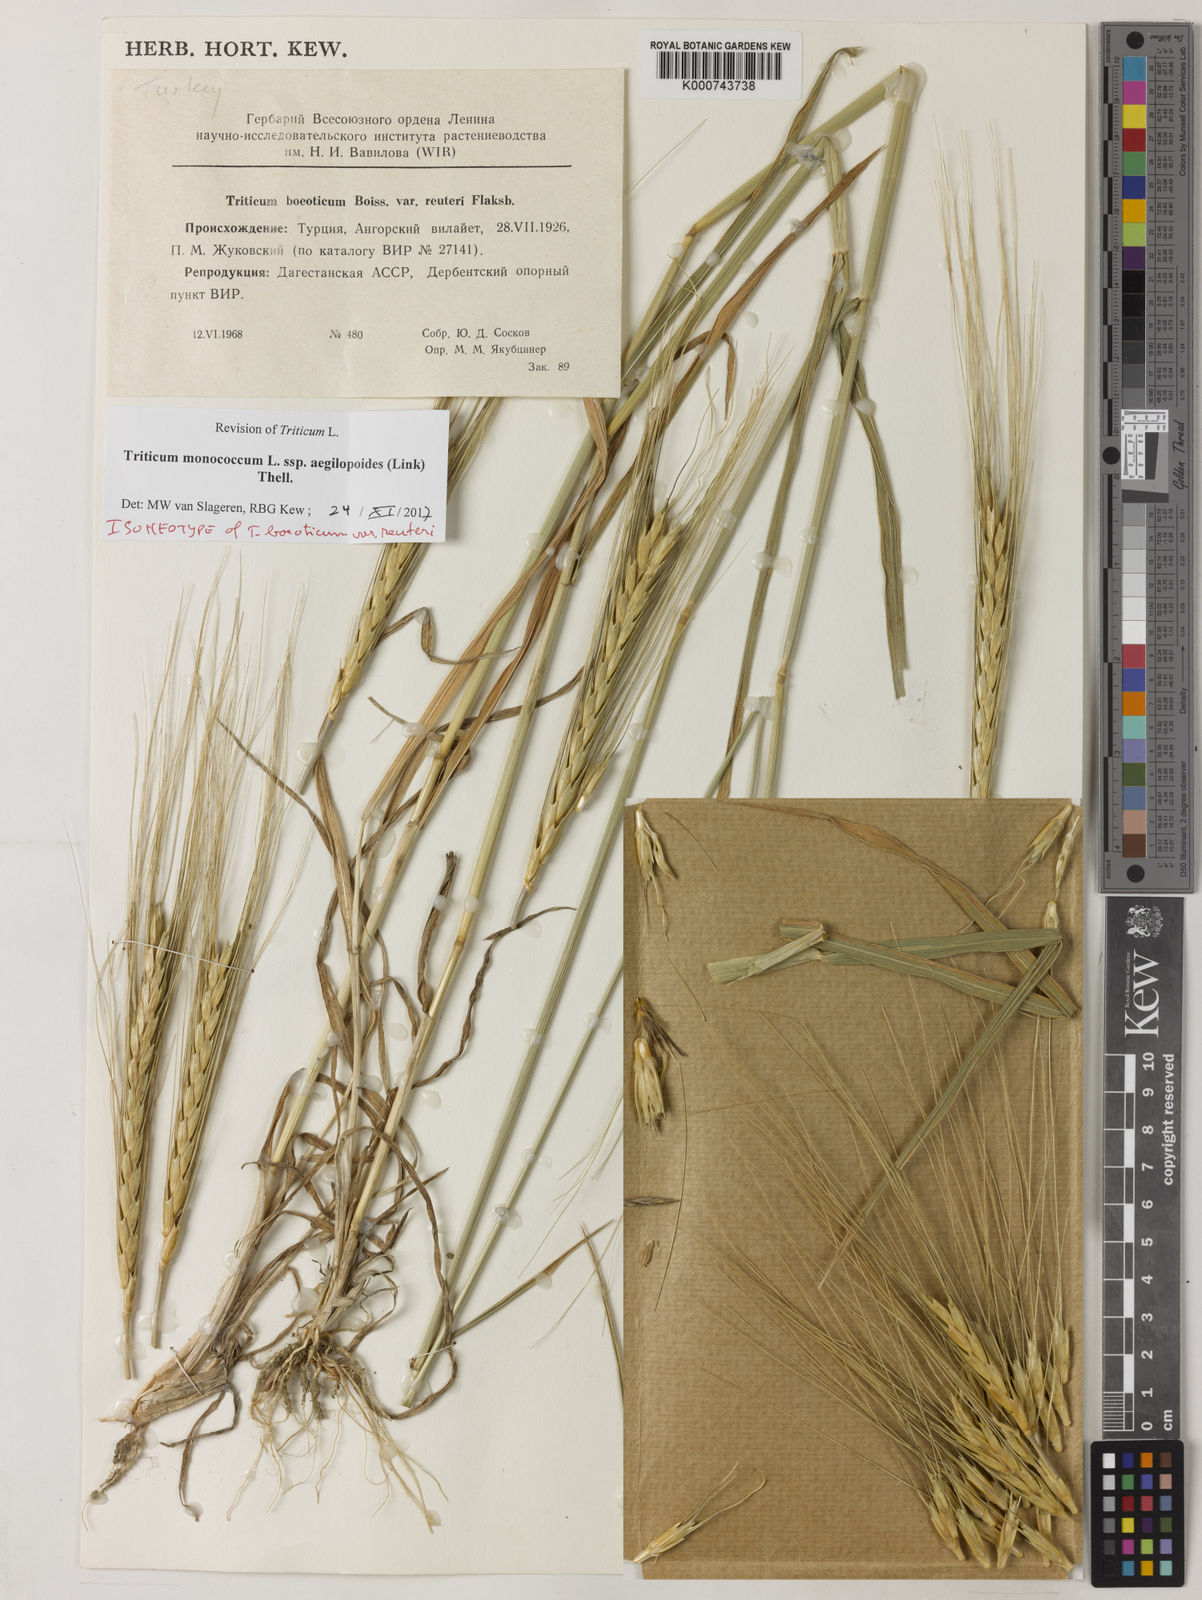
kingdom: Plantae
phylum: Tracheophyta
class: Liliopsida
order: Poales
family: Poaceae
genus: Triticum
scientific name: Triticum monococcum
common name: Einkorn
